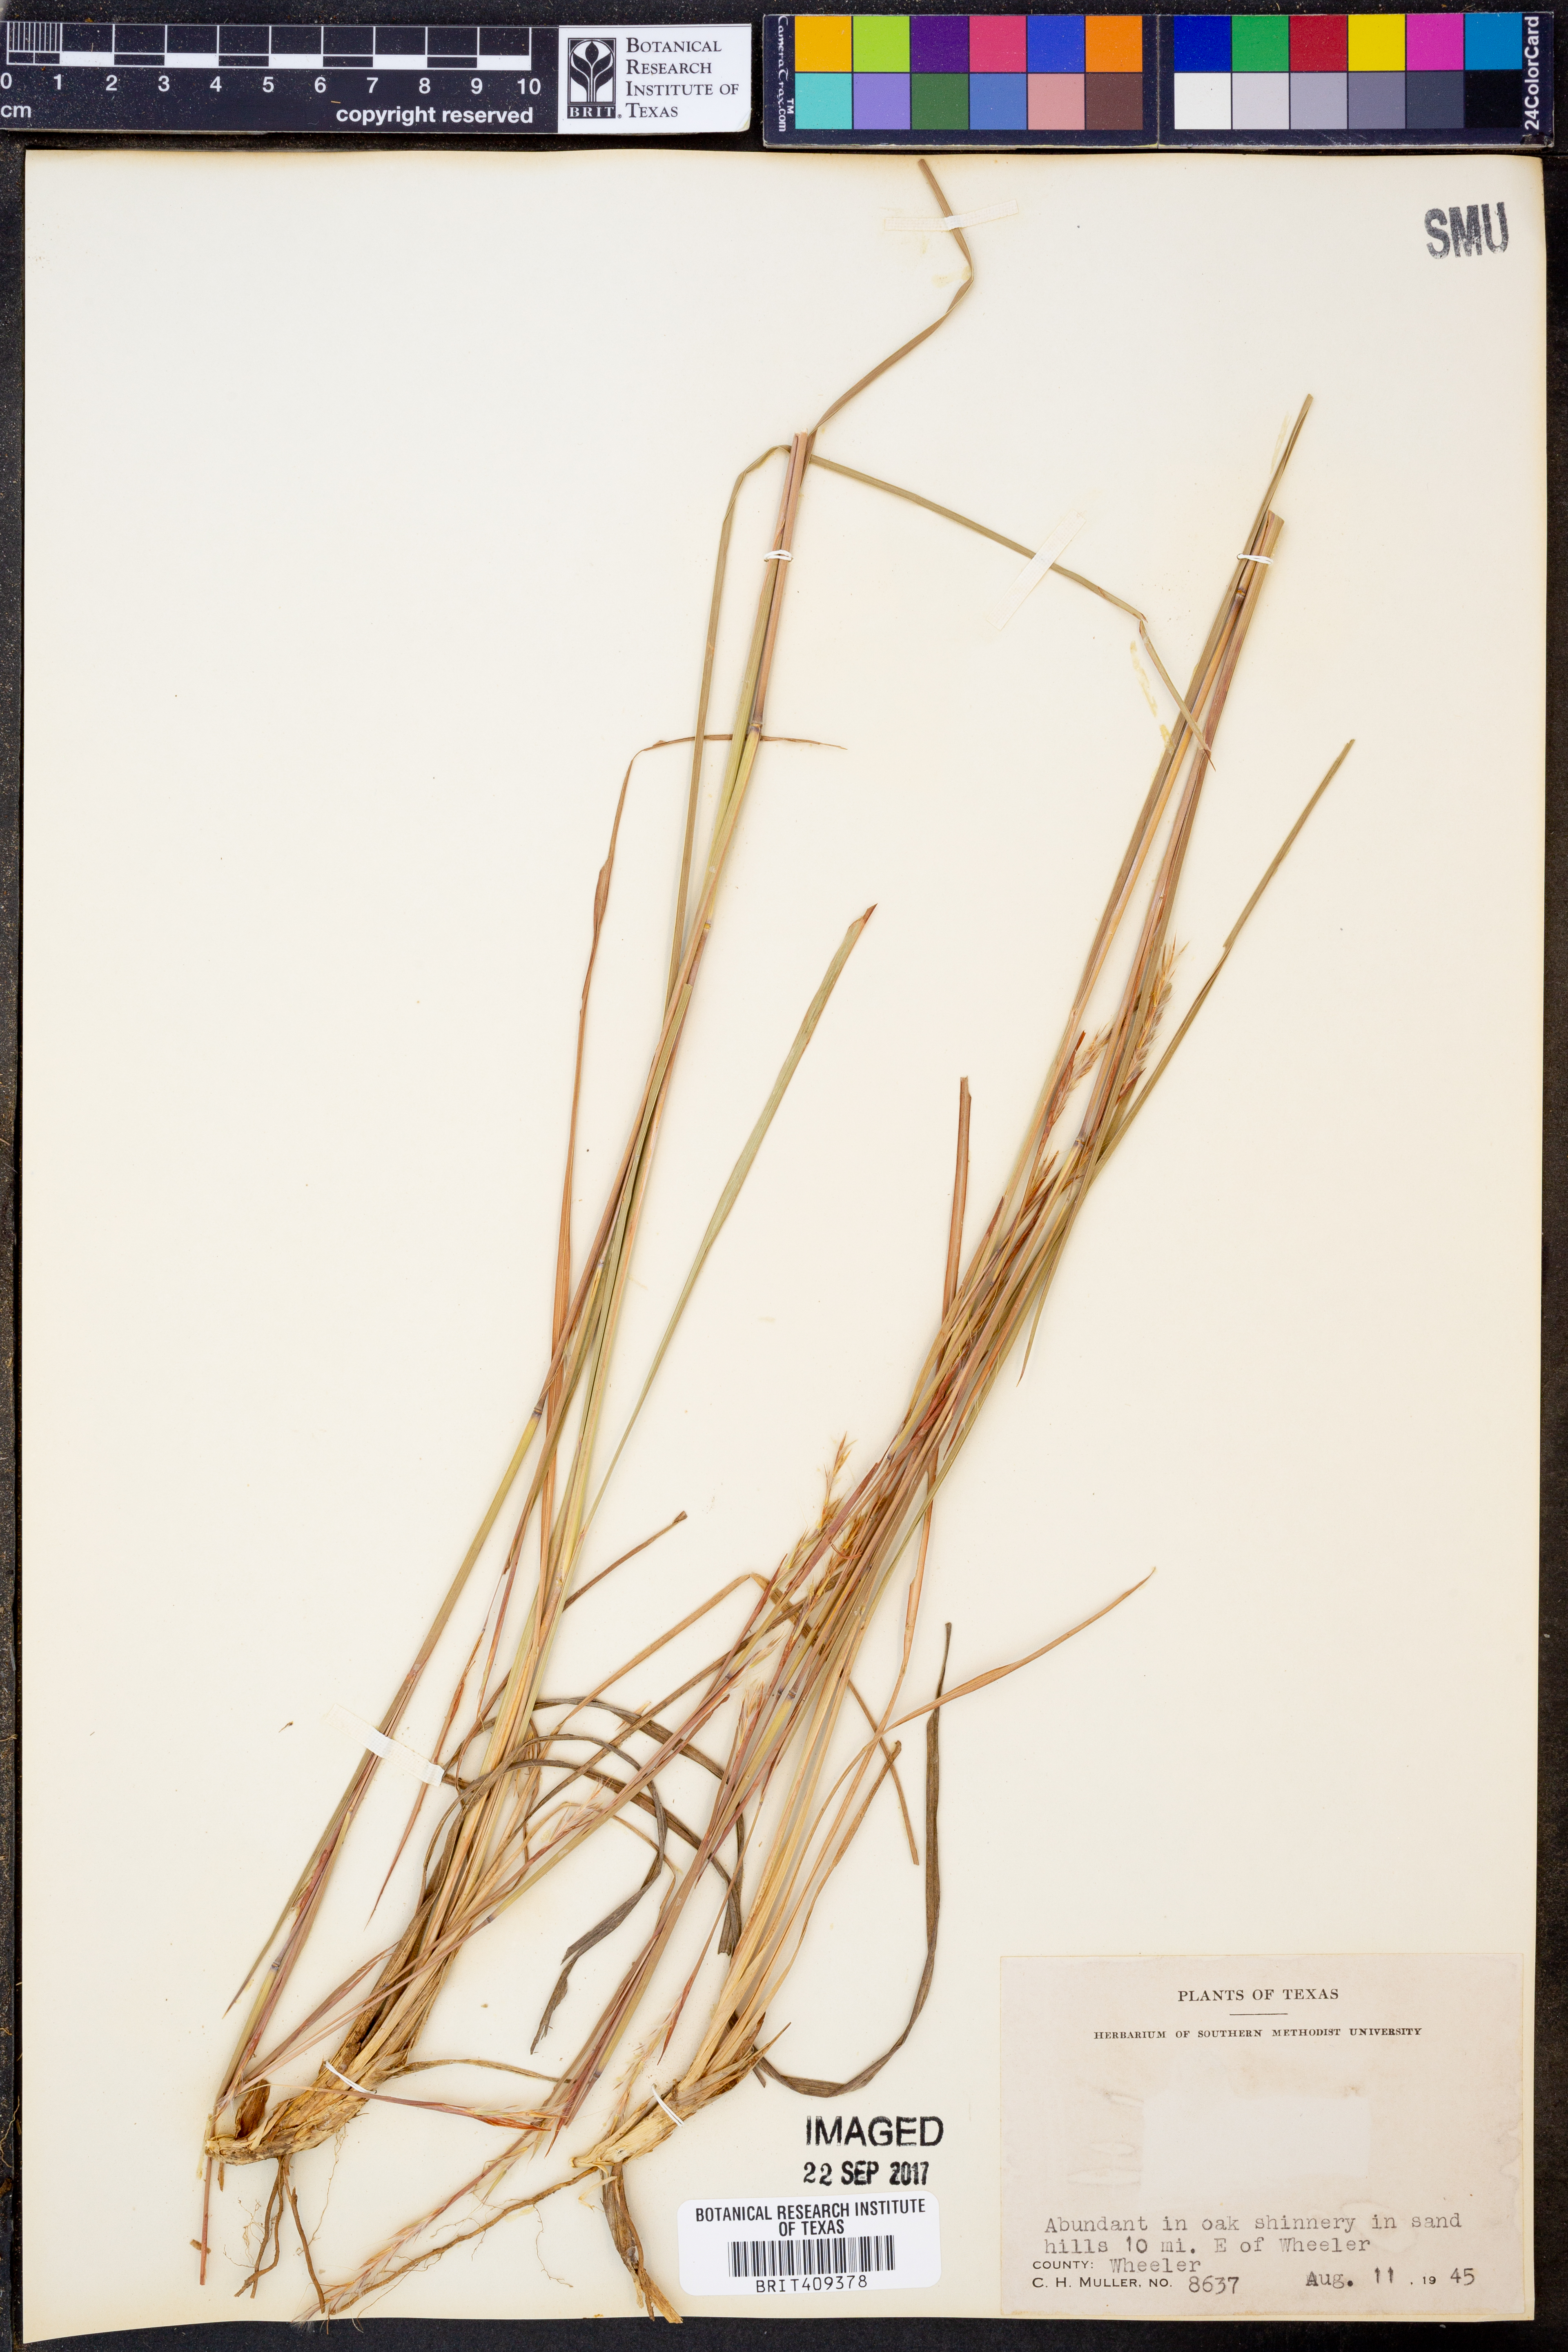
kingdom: Plantae
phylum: Tracheophyta
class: Liliopsida
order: Poales
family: Poaceae
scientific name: Poaceae
